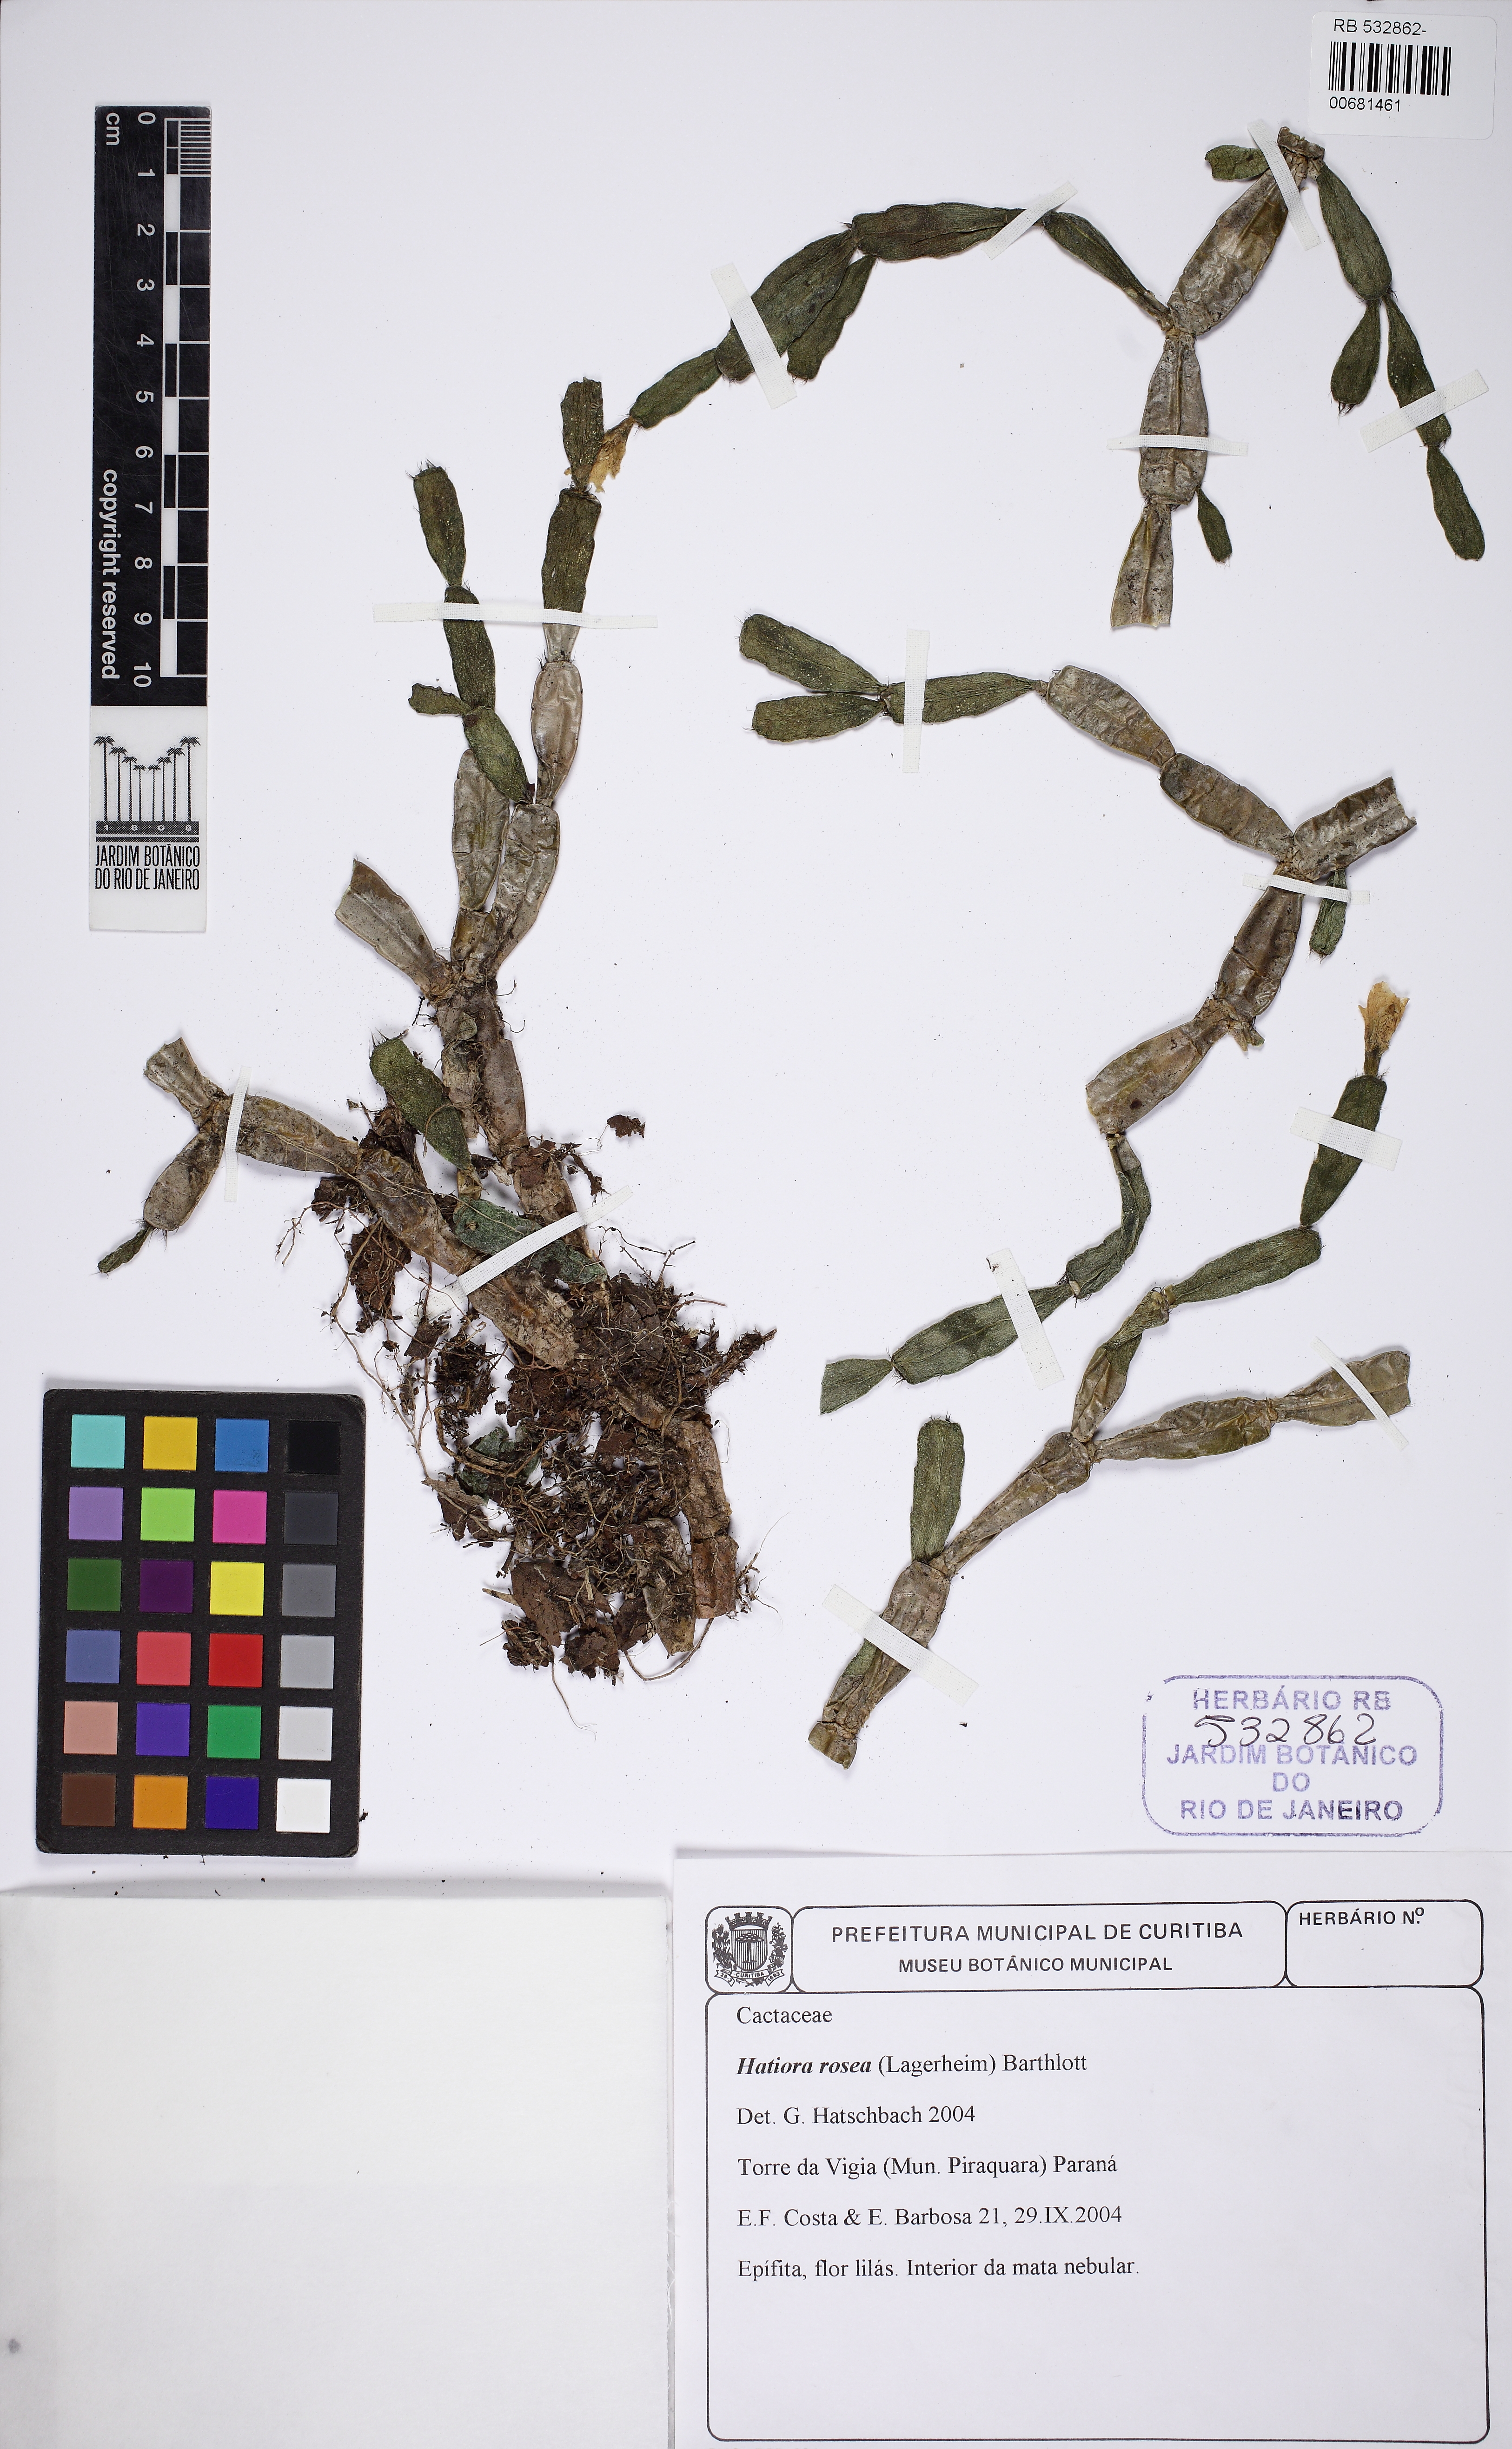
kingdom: Plantae
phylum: Tracheophyta
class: Magnoliopsida
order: Caryophyllales
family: Cactaceae
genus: Hatiora
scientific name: Hatiora rosea
